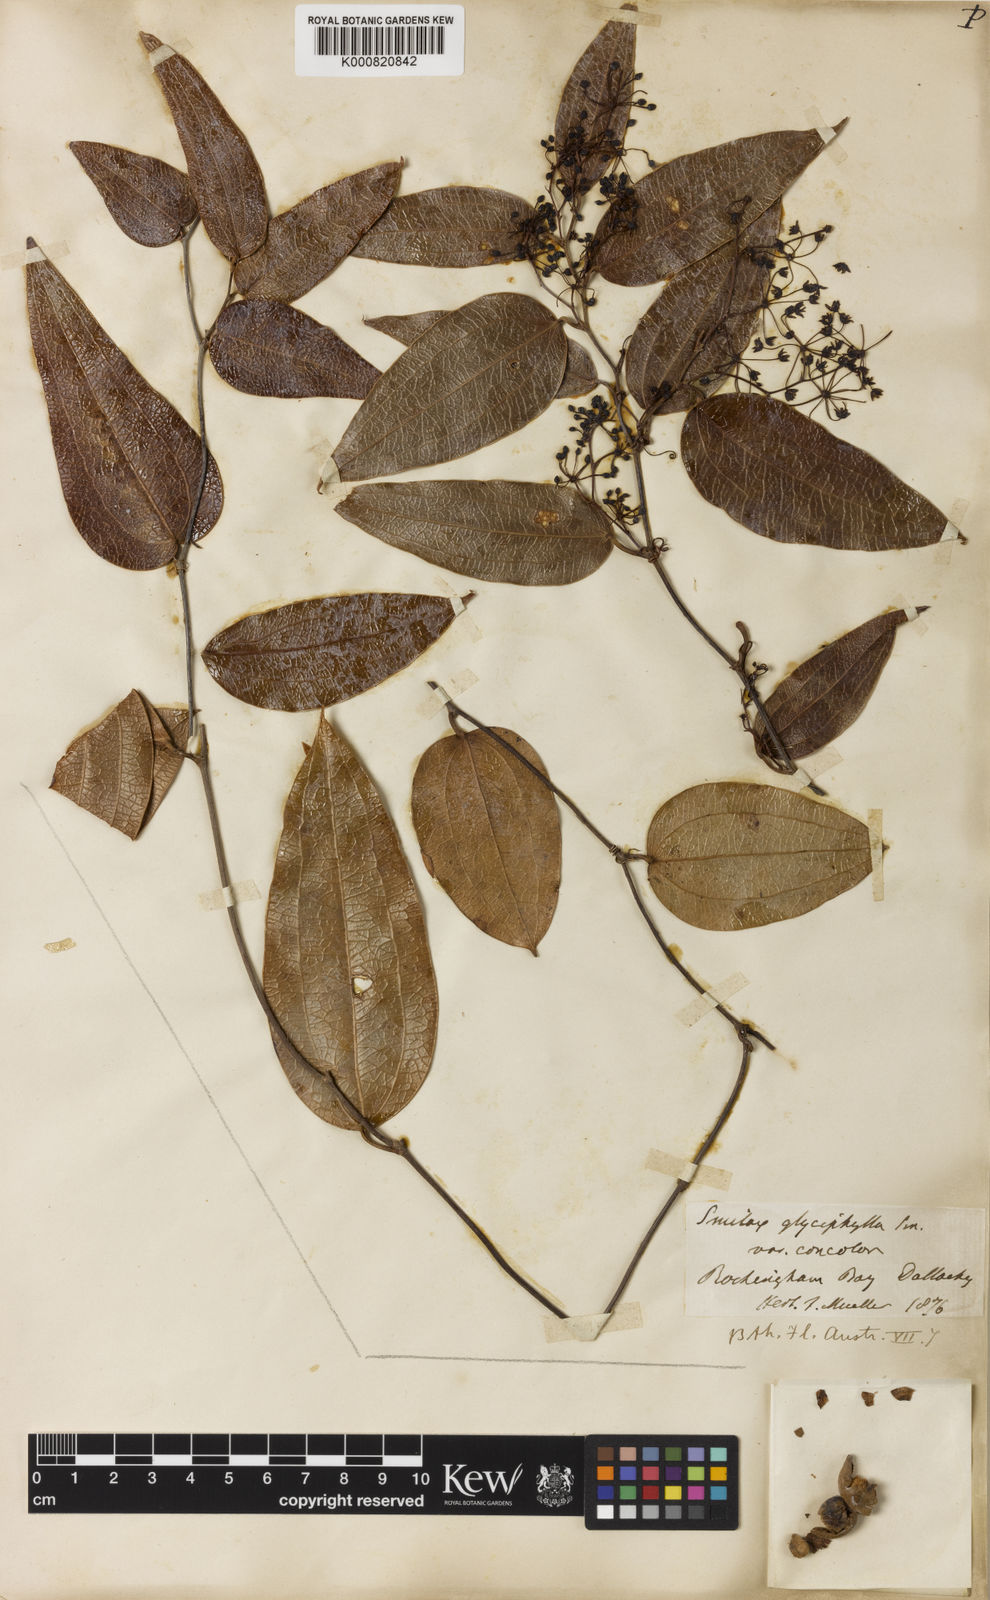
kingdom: Plantae
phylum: Tracheophyta
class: Liliopsida
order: Liliales
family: Smilacaceae
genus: Smilax
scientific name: Smilax leucophylla
